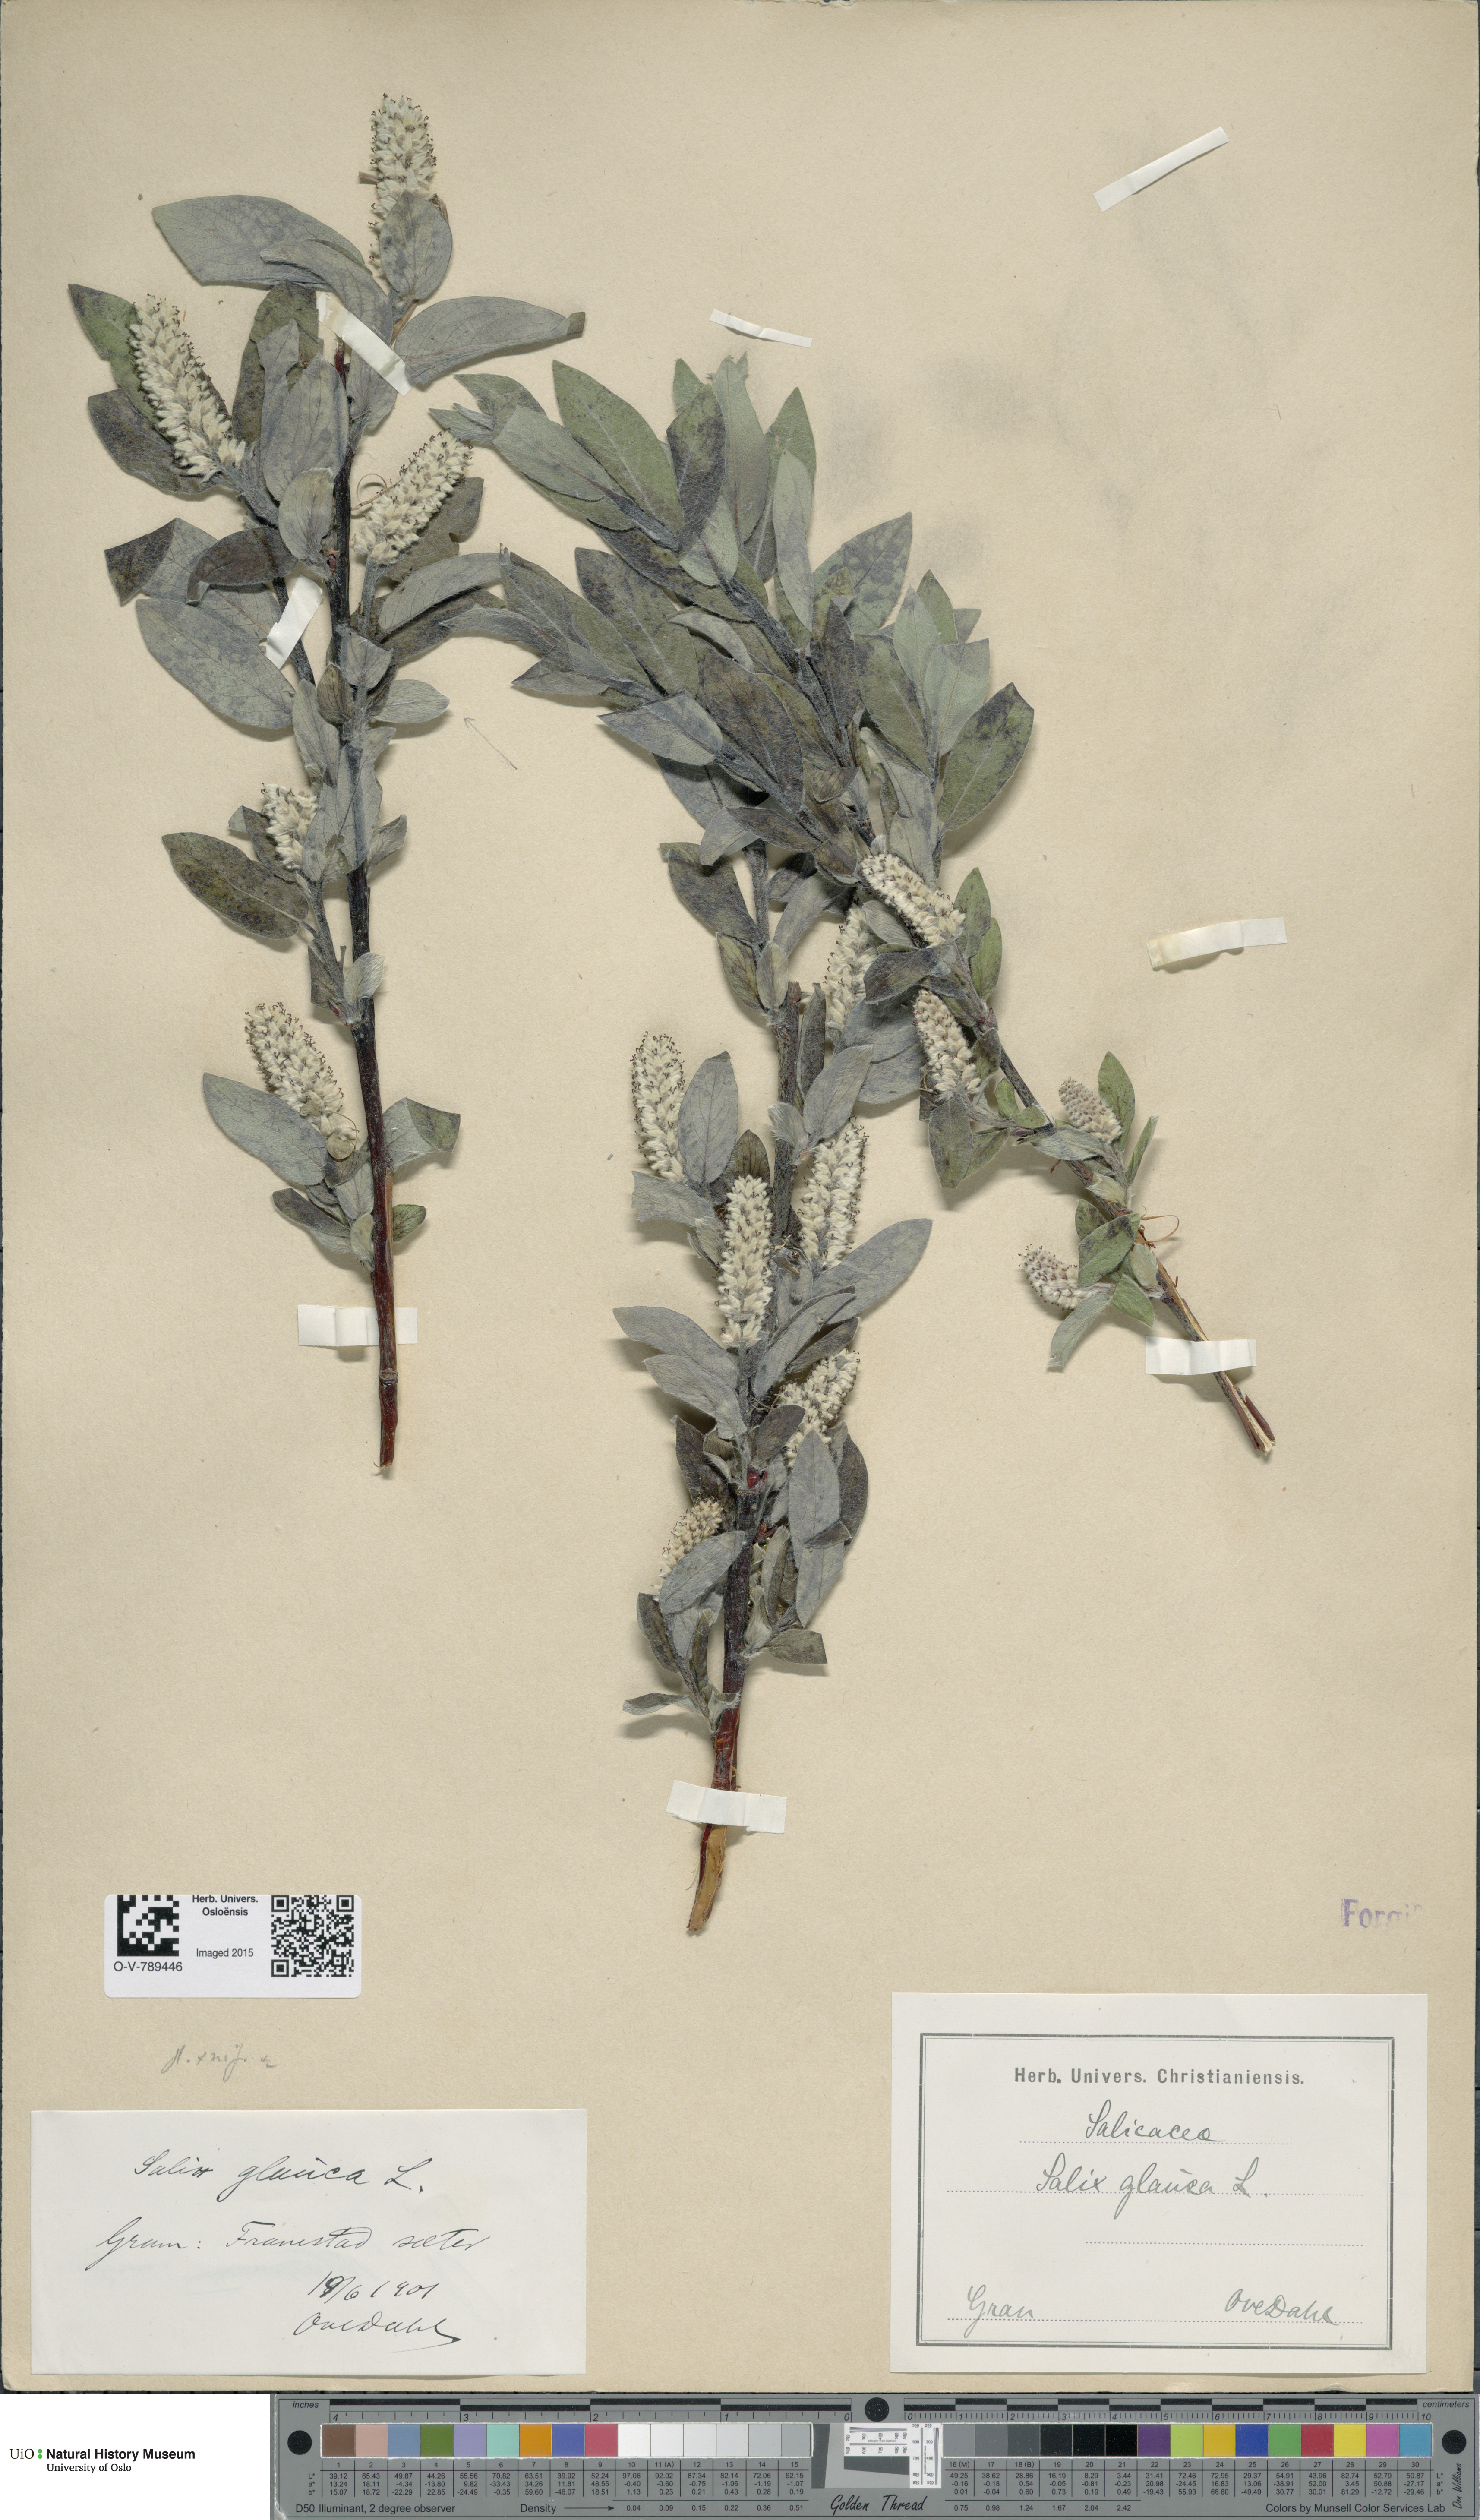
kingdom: Plantae
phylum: Tracheophyta
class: Magnoliopsida
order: Malpighiales
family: Salicaceae
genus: Salix
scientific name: Salix
